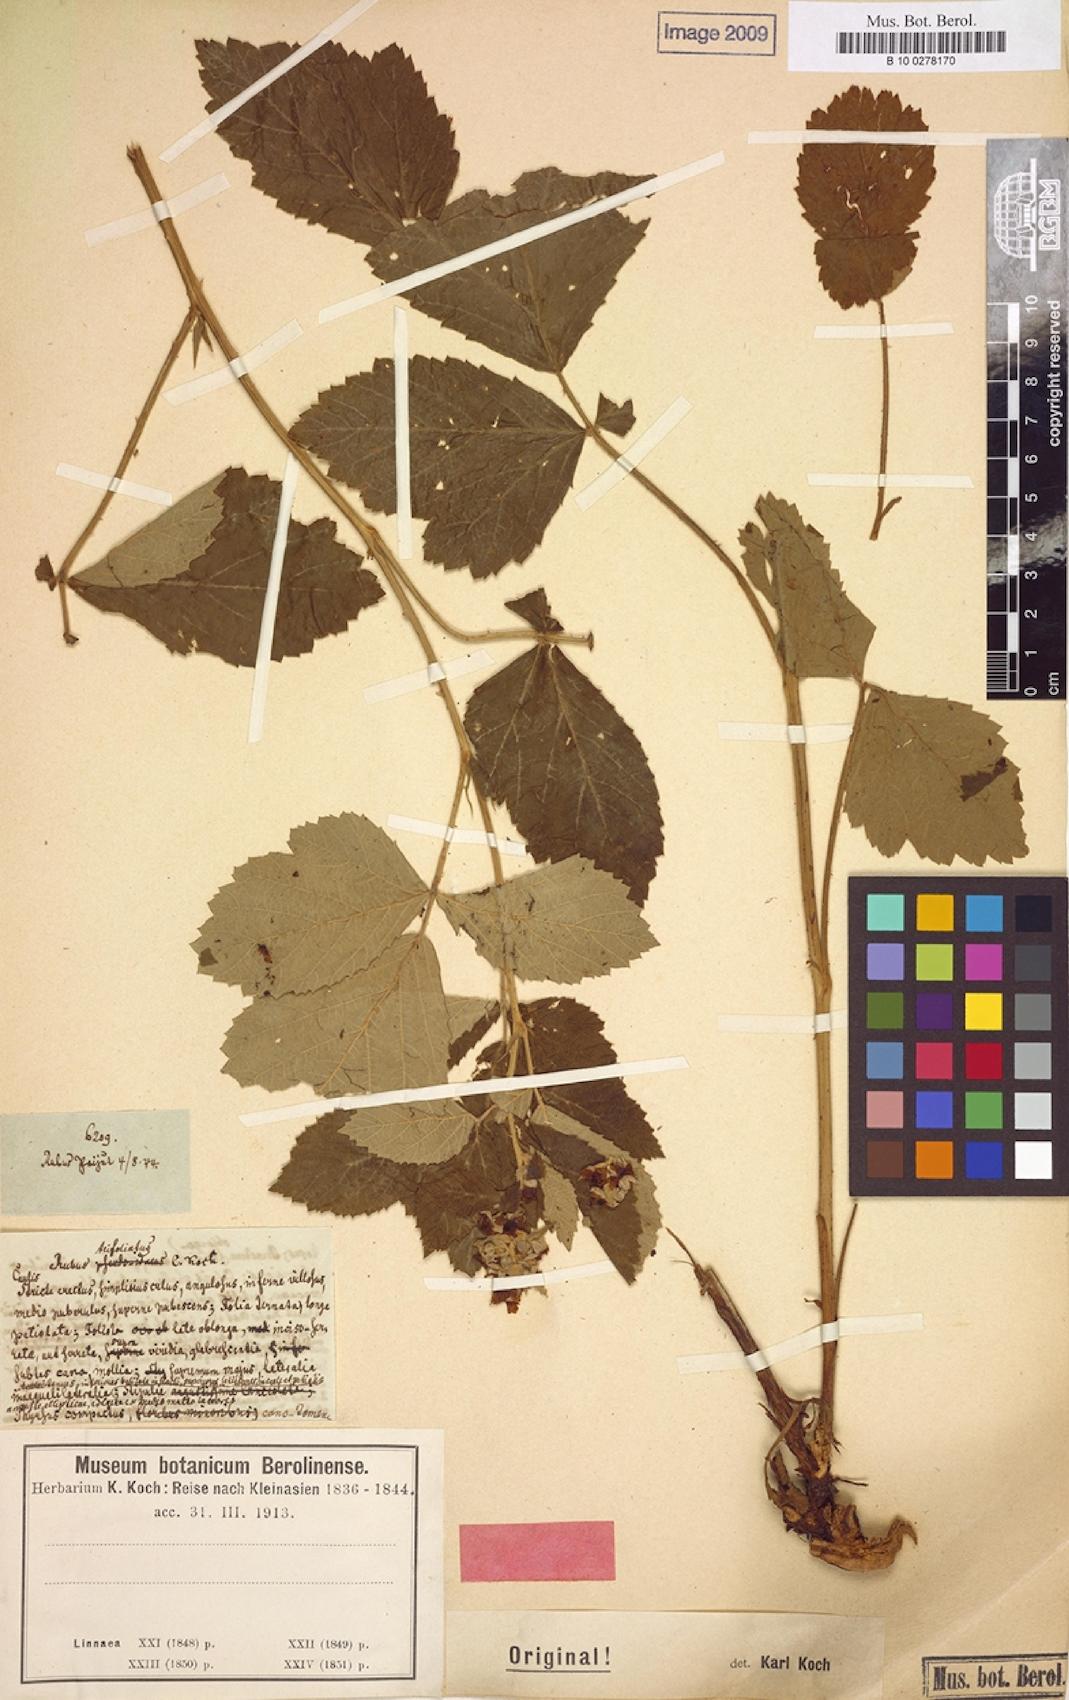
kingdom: Plantae
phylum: Tracheophyta
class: Magnoliopsida
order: Rosales
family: Rosaceae
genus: Rubus
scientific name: Rubus trifoliatus
